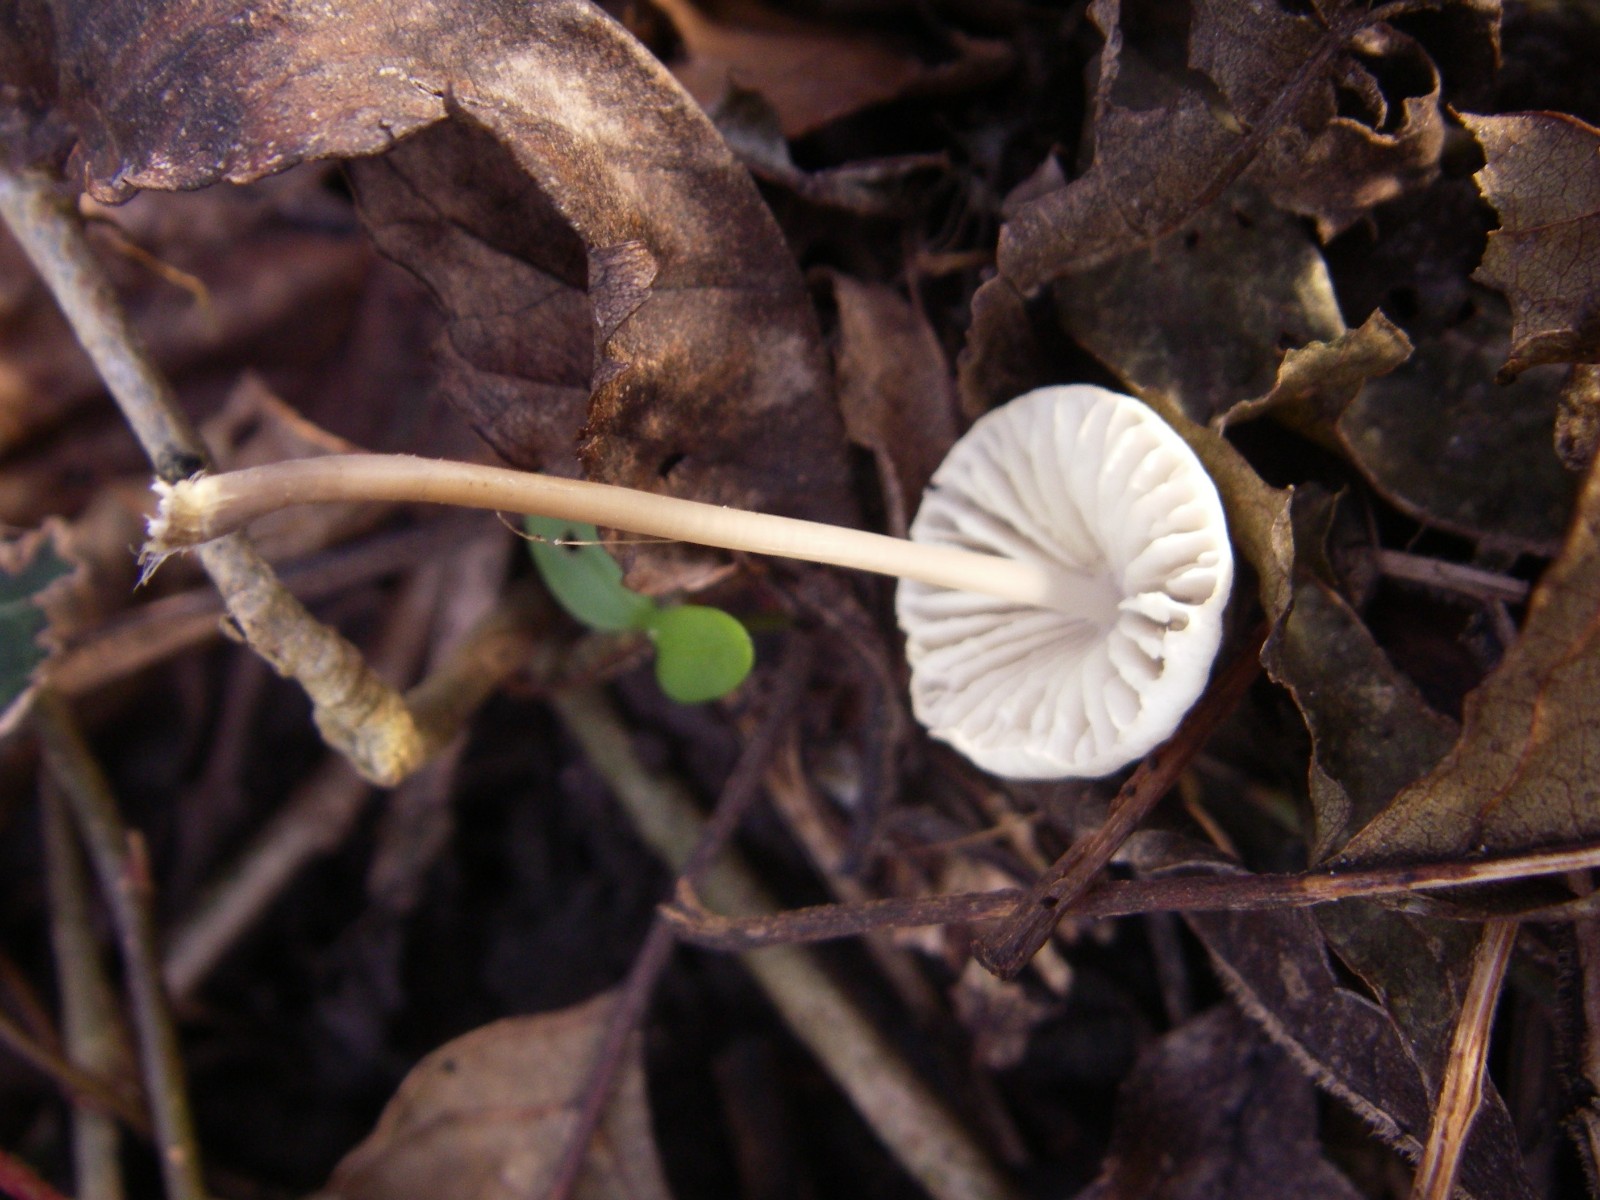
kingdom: Fungi
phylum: Basidiomycota
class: Agaricomycetes
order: Agaricales
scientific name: Agaricales
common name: champignonordenen
